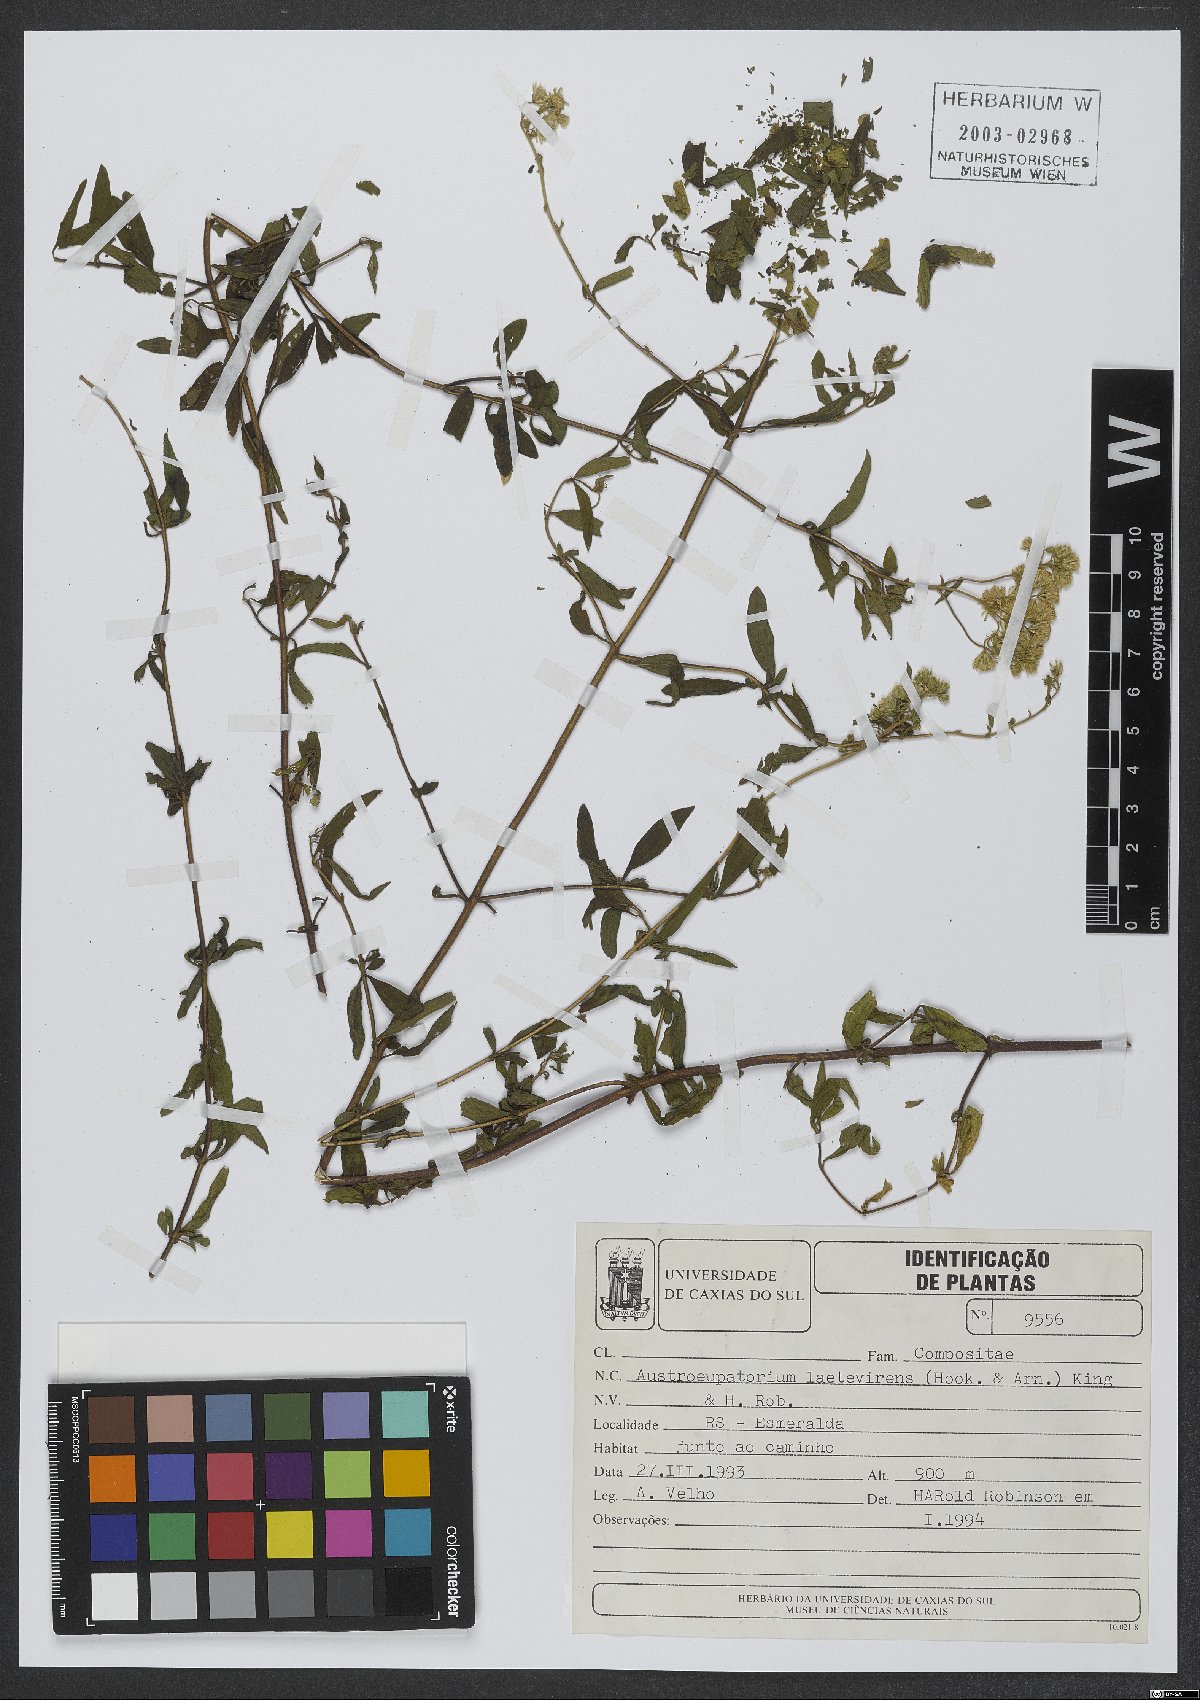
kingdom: Plantae
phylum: Tracheophyta
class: Magnoliopsida
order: Asterales
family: Asteraceae
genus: Austroeupatorium
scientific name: Austroeupatorium laetevirens
